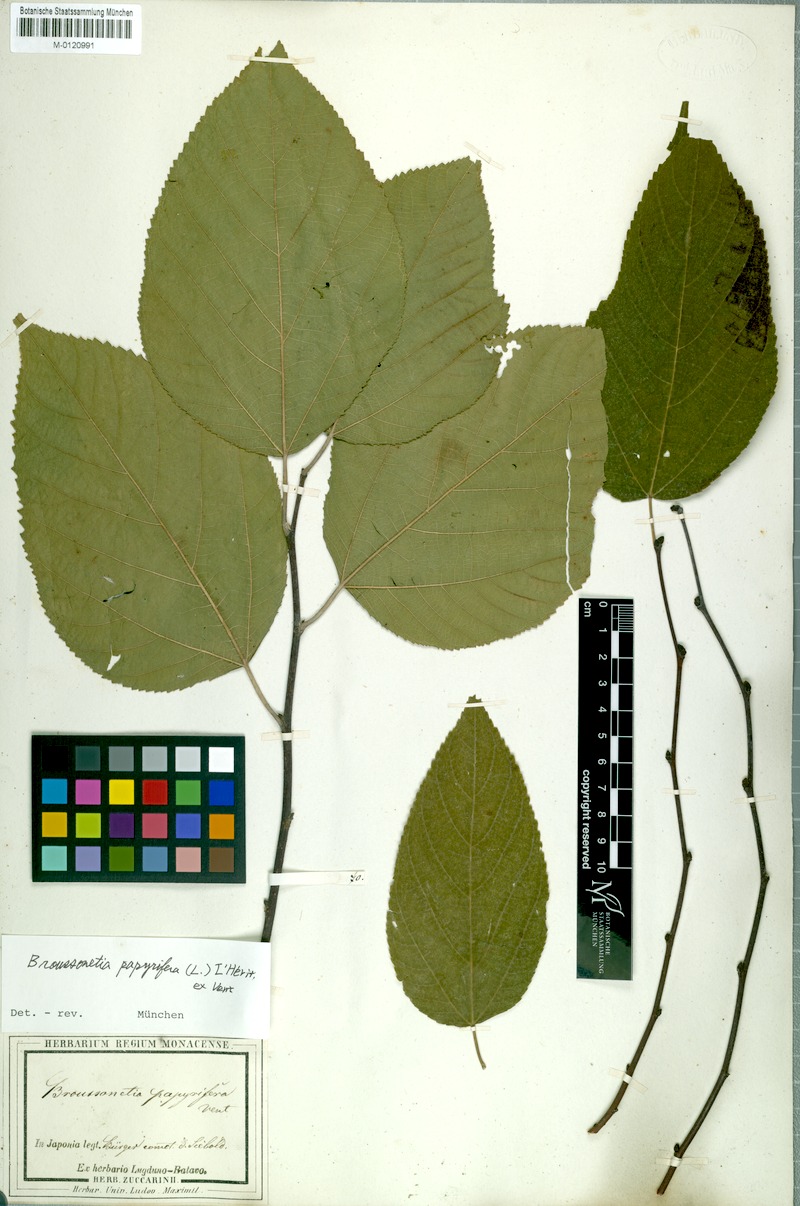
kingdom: Plantae
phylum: Tracheophyta
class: Magnoliopsida
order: Rosales
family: Moraceae
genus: Broussonetia
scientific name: Broussonetia papyrifera
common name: Paper mulberry
